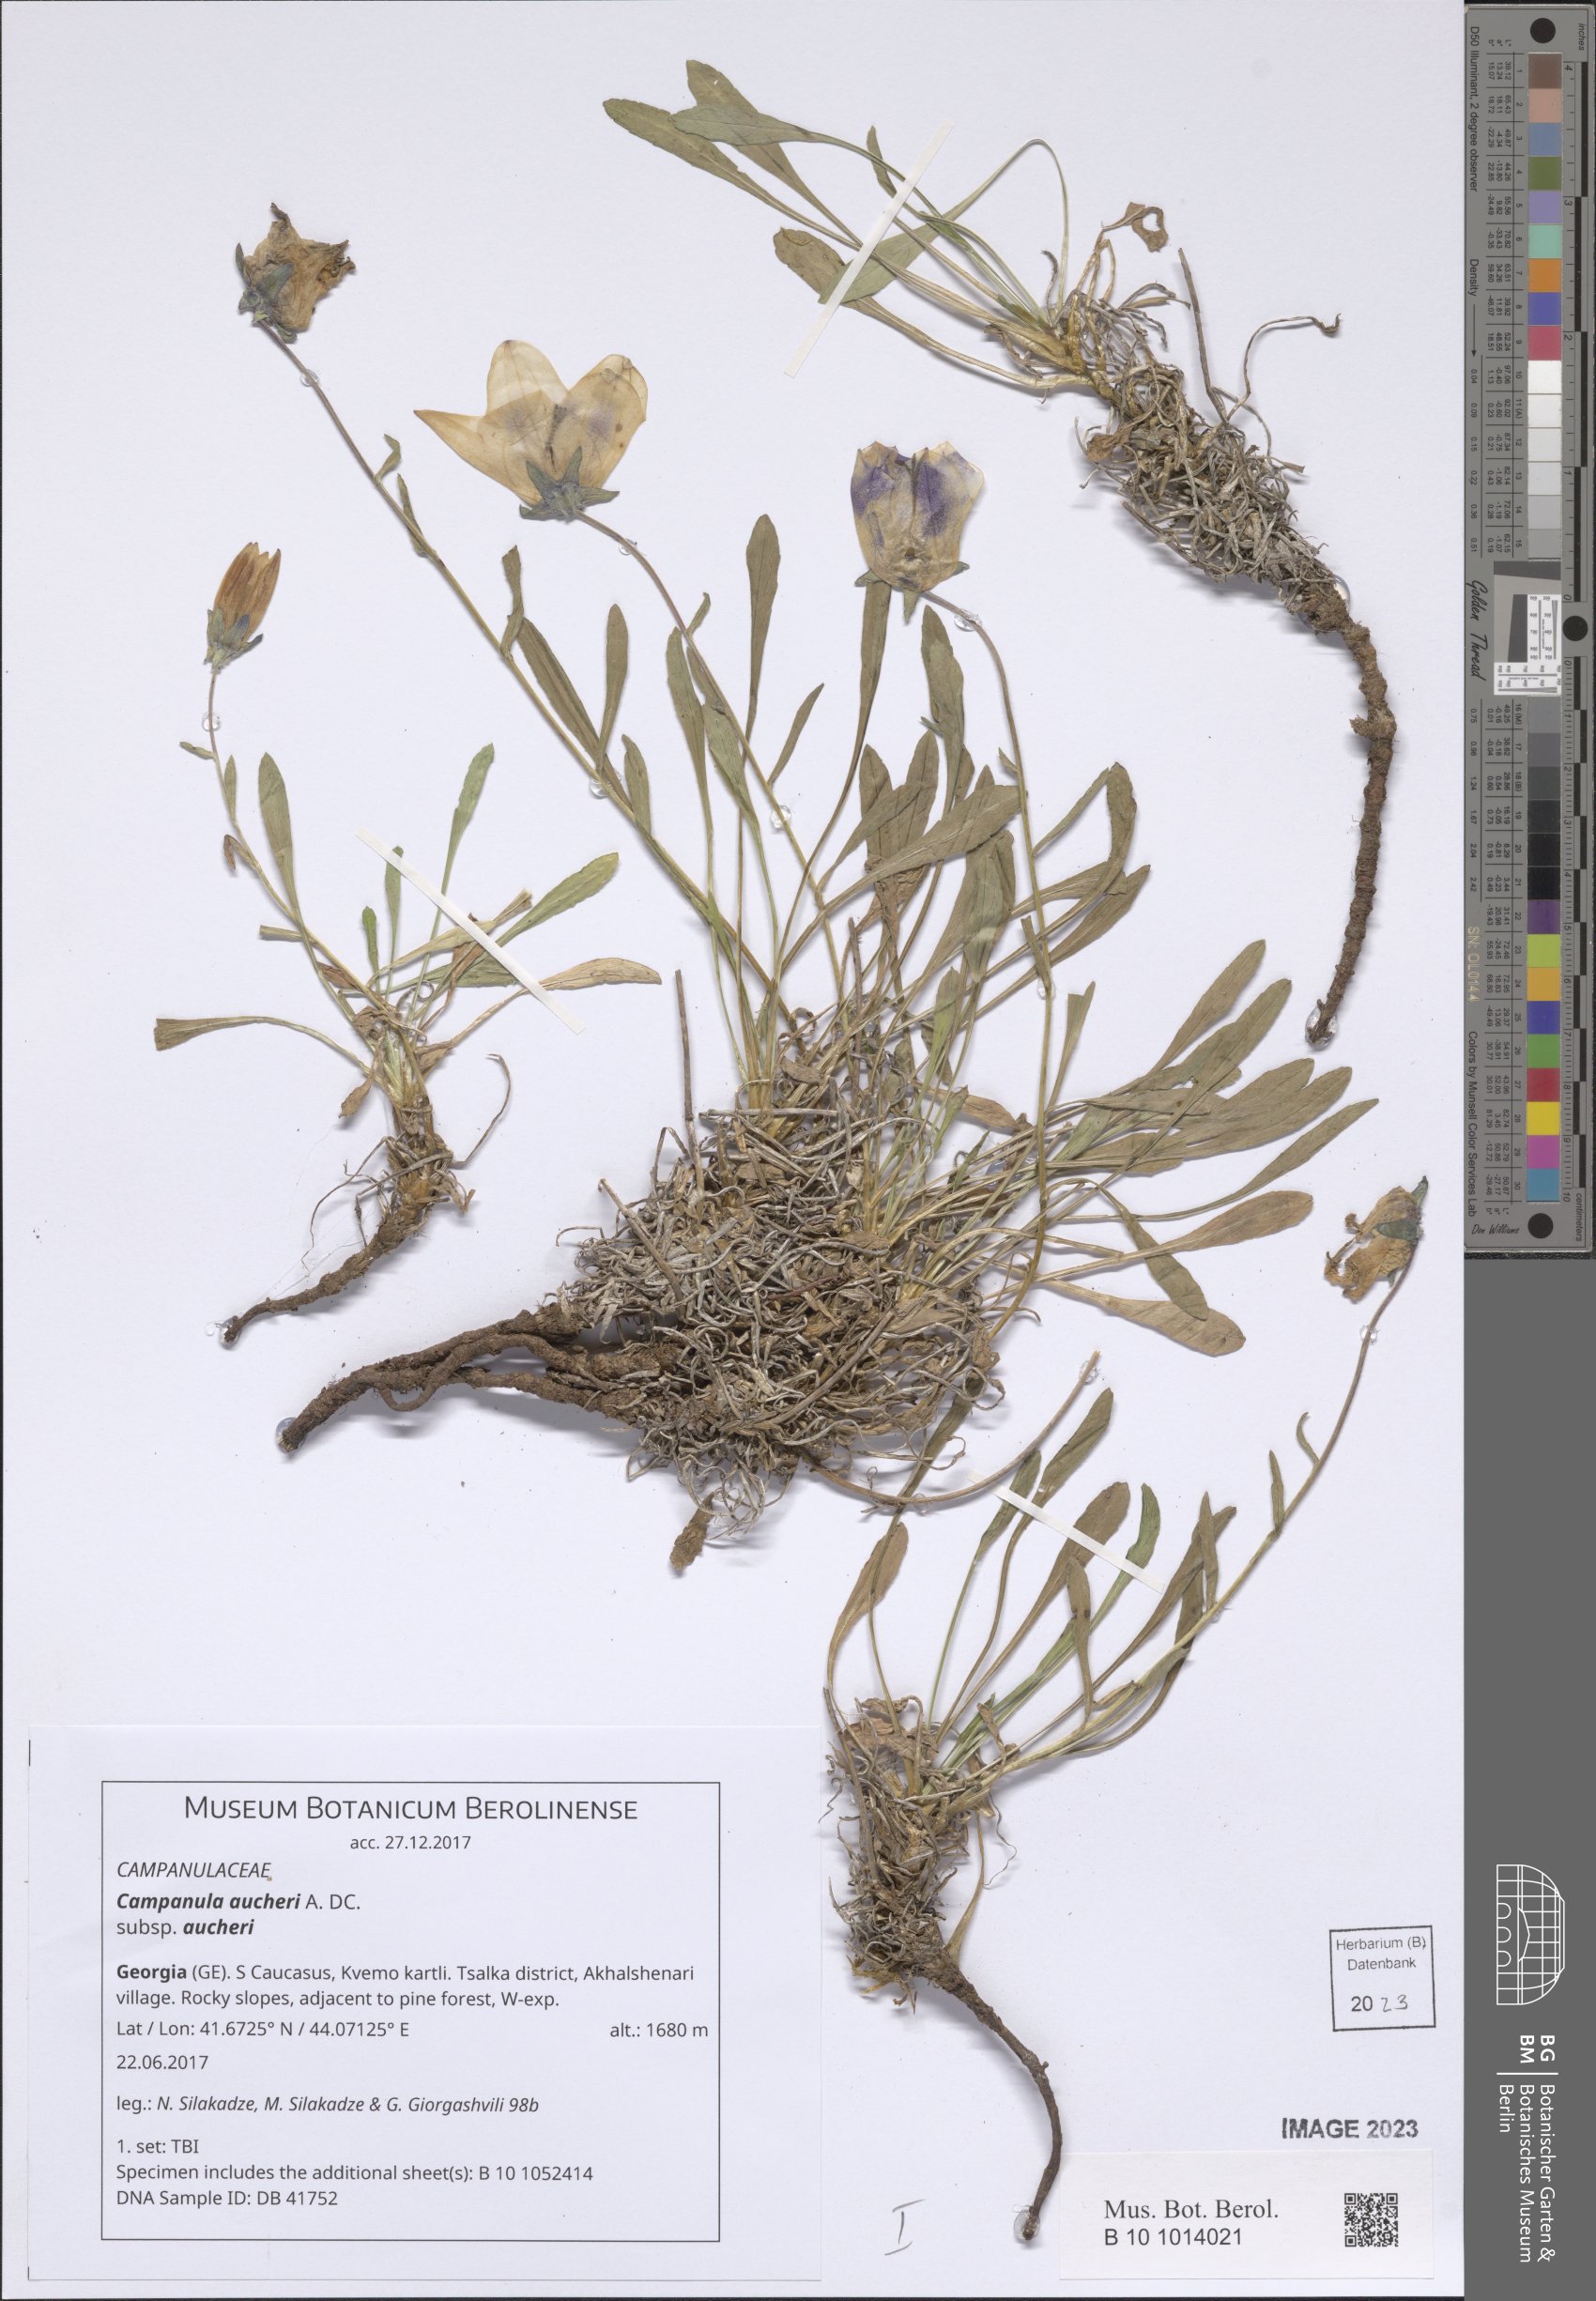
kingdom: Plantae
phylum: Tracheophyta
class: Magnoliopsida
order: Asterales
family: Campanulaceae
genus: Campanula
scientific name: Campanula saxifraga
